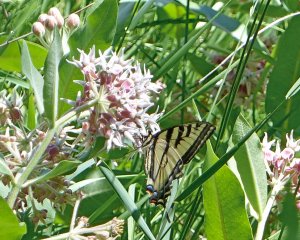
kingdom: Animalia
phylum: Arthropoda
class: Insecta
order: Lepidoptera
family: Papilionidae
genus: Pterourus
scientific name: Pterourus rutulus
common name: Western Tiger Swallowtail
